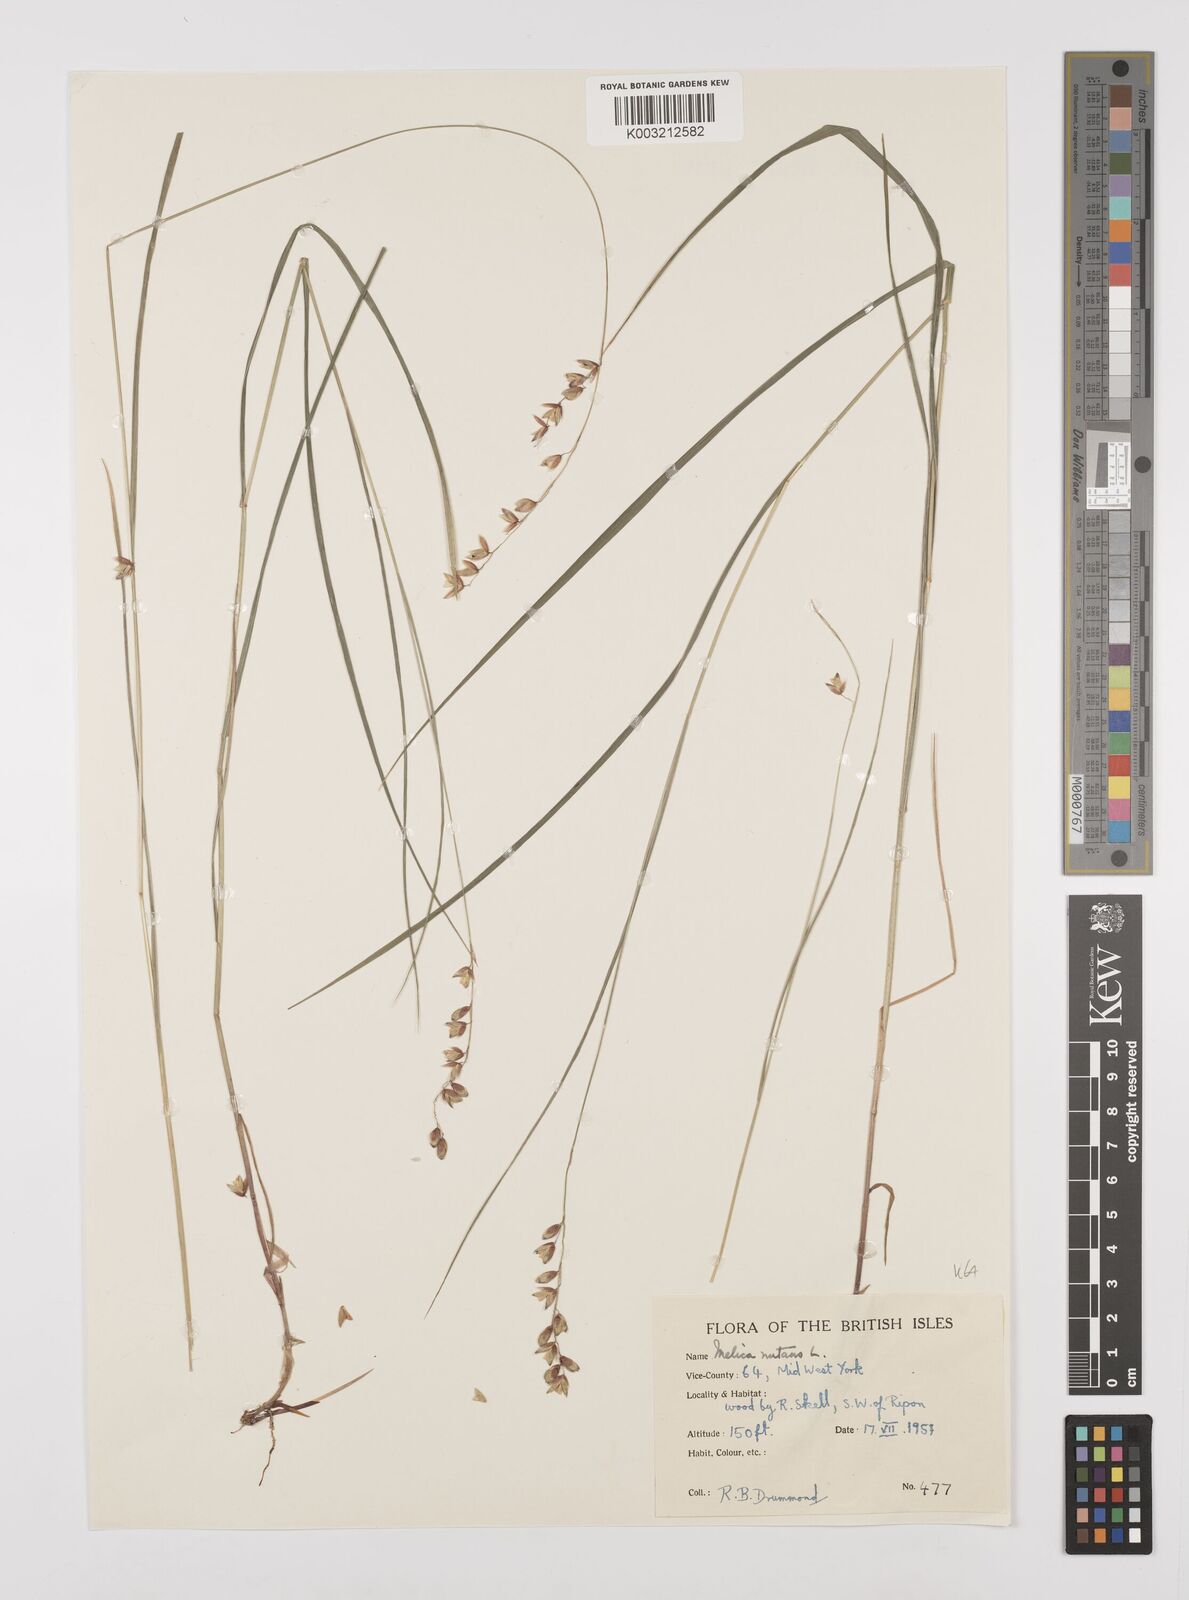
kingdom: Plantae
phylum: Tracheophyta
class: Liliopsida
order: Poales
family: Poaceae
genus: Melica
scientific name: Melica
